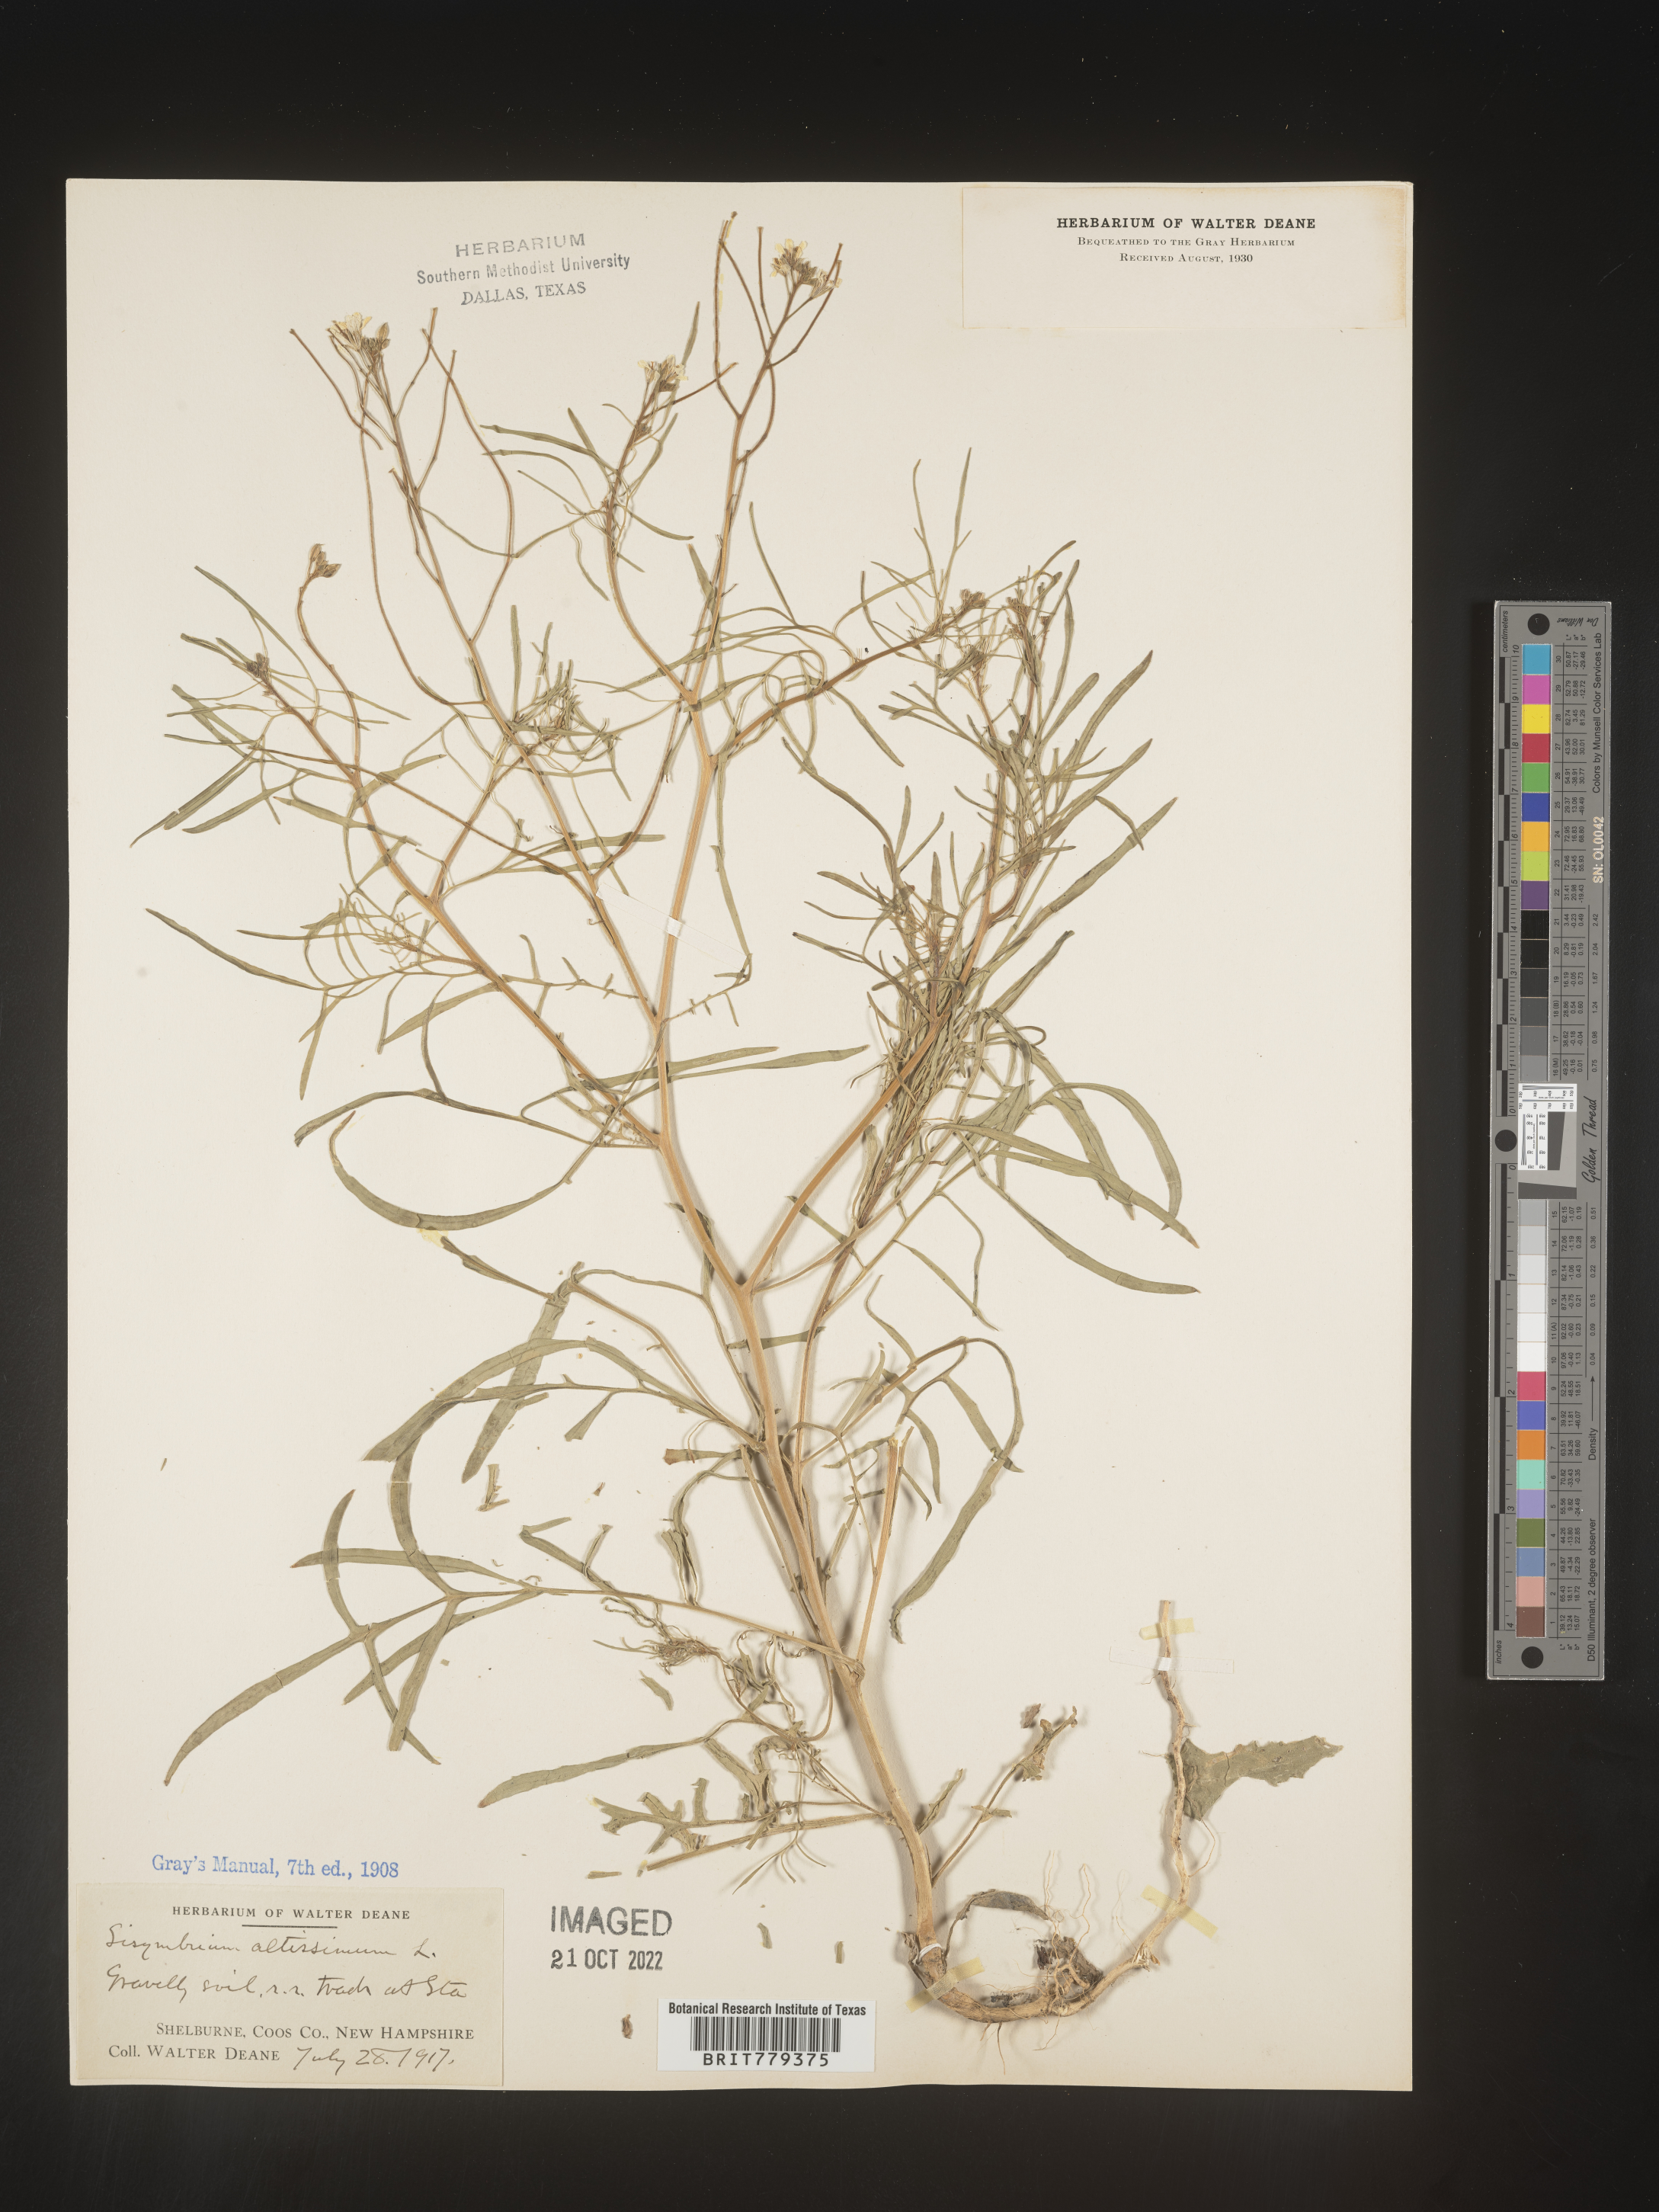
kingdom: Plantae
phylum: Tracheophyta
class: Magnoliopsida
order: Brassicales
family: Brassicaceae
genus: Sisymbrium
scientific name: Sisymbrium altissimum
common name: Tall rocket
